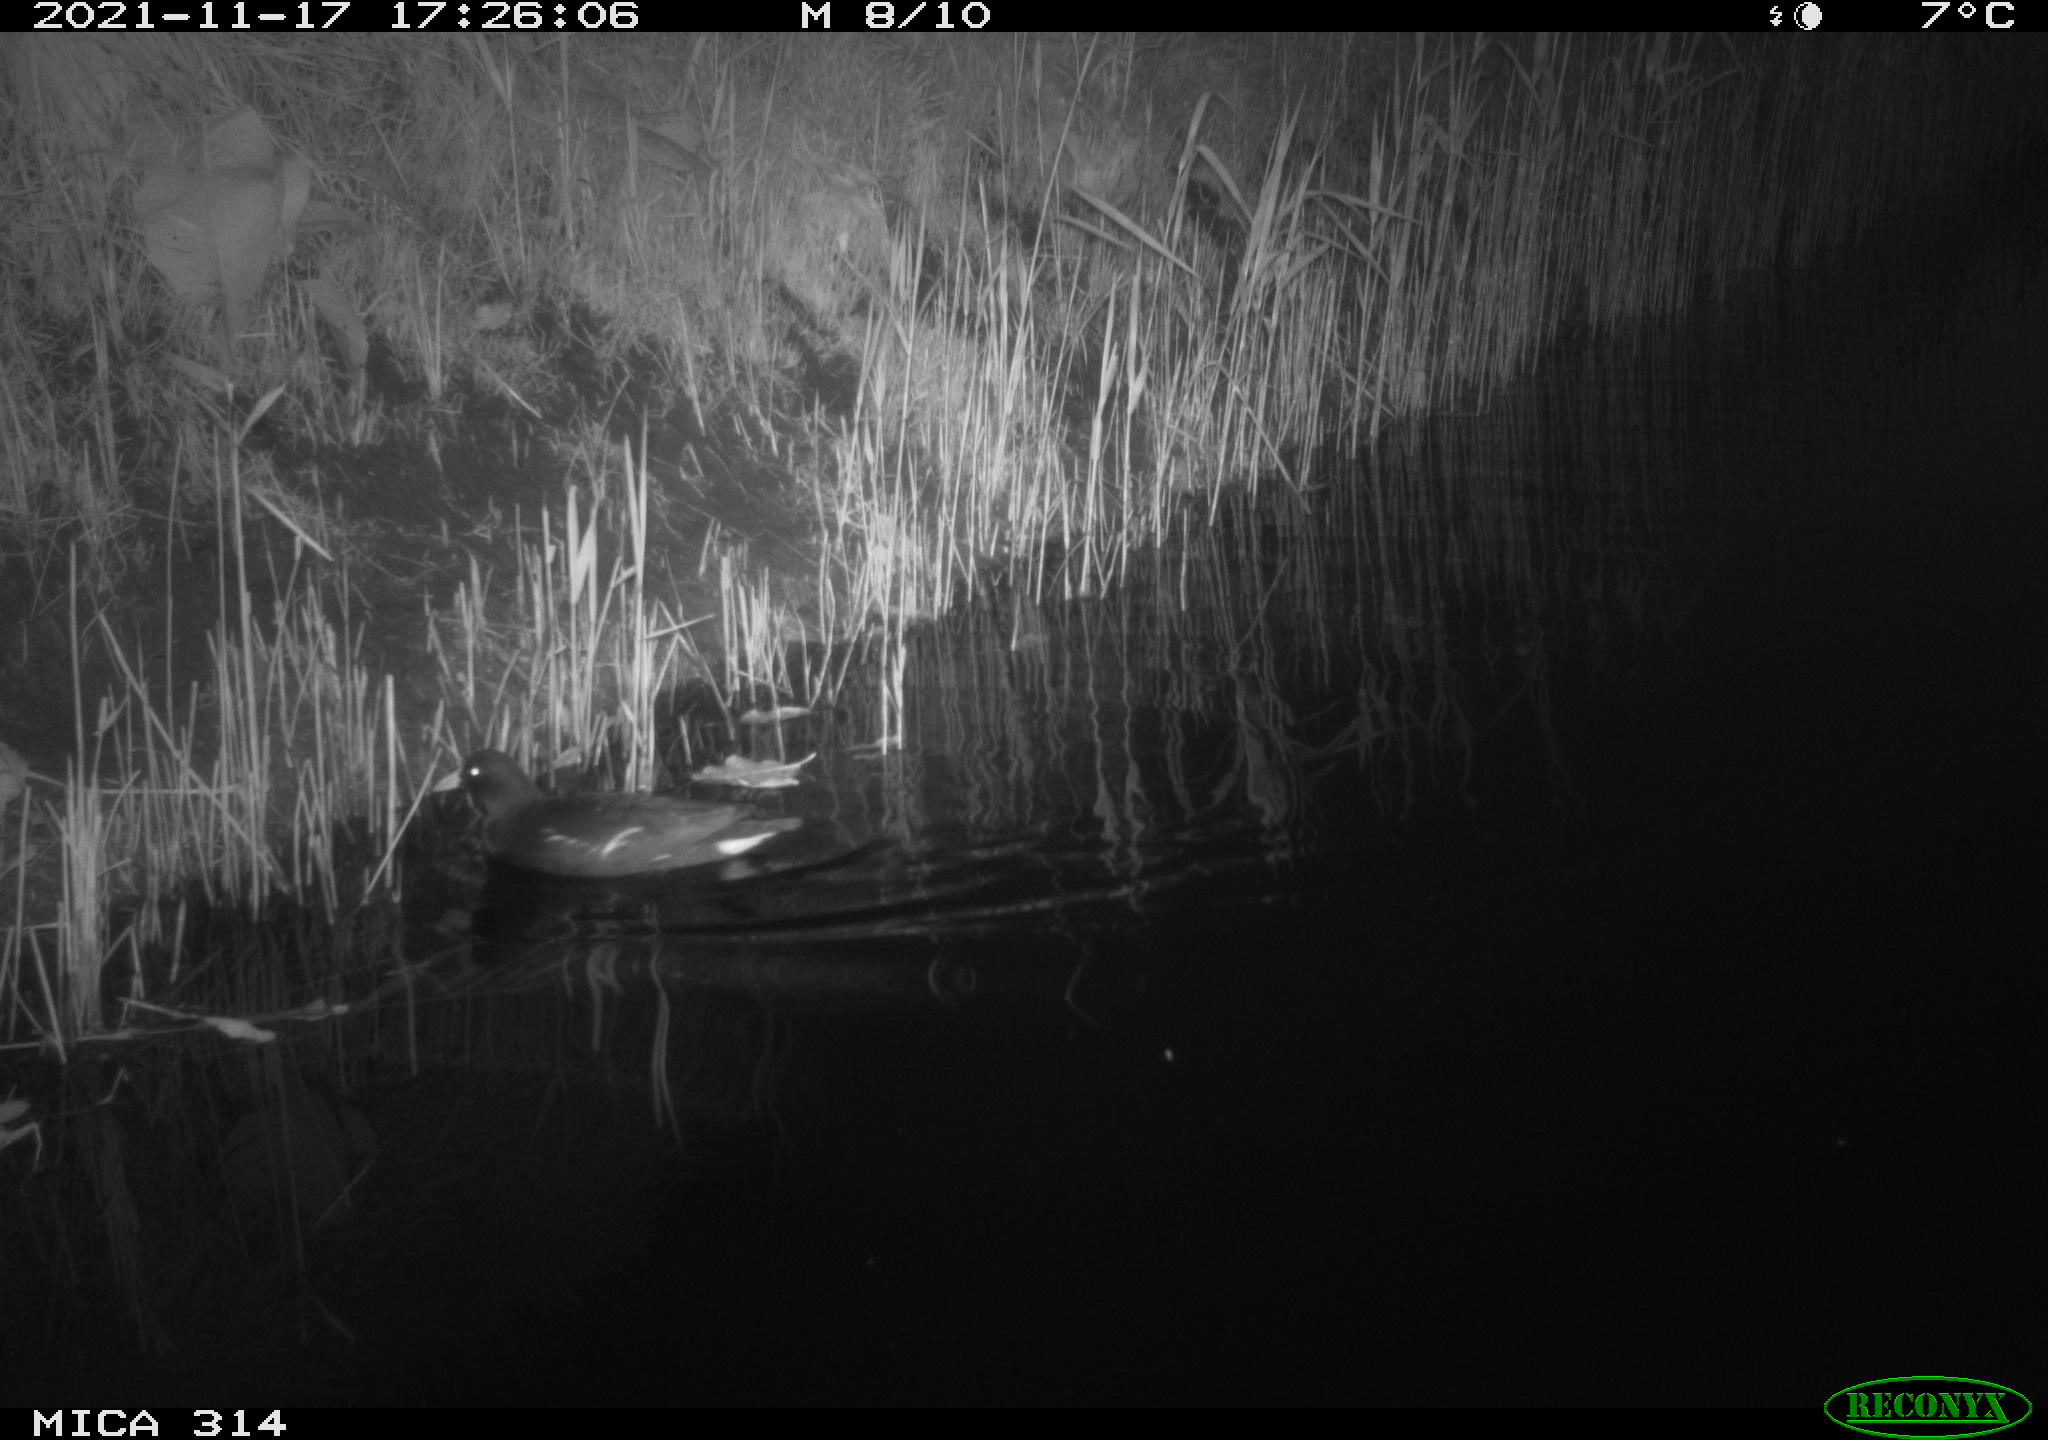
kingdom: Animalia
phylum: Chordata
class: Aves
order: Gruiformes
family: Rallidae
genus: Gallinula
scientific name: Gallinula chloropus
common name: Common moorhen
